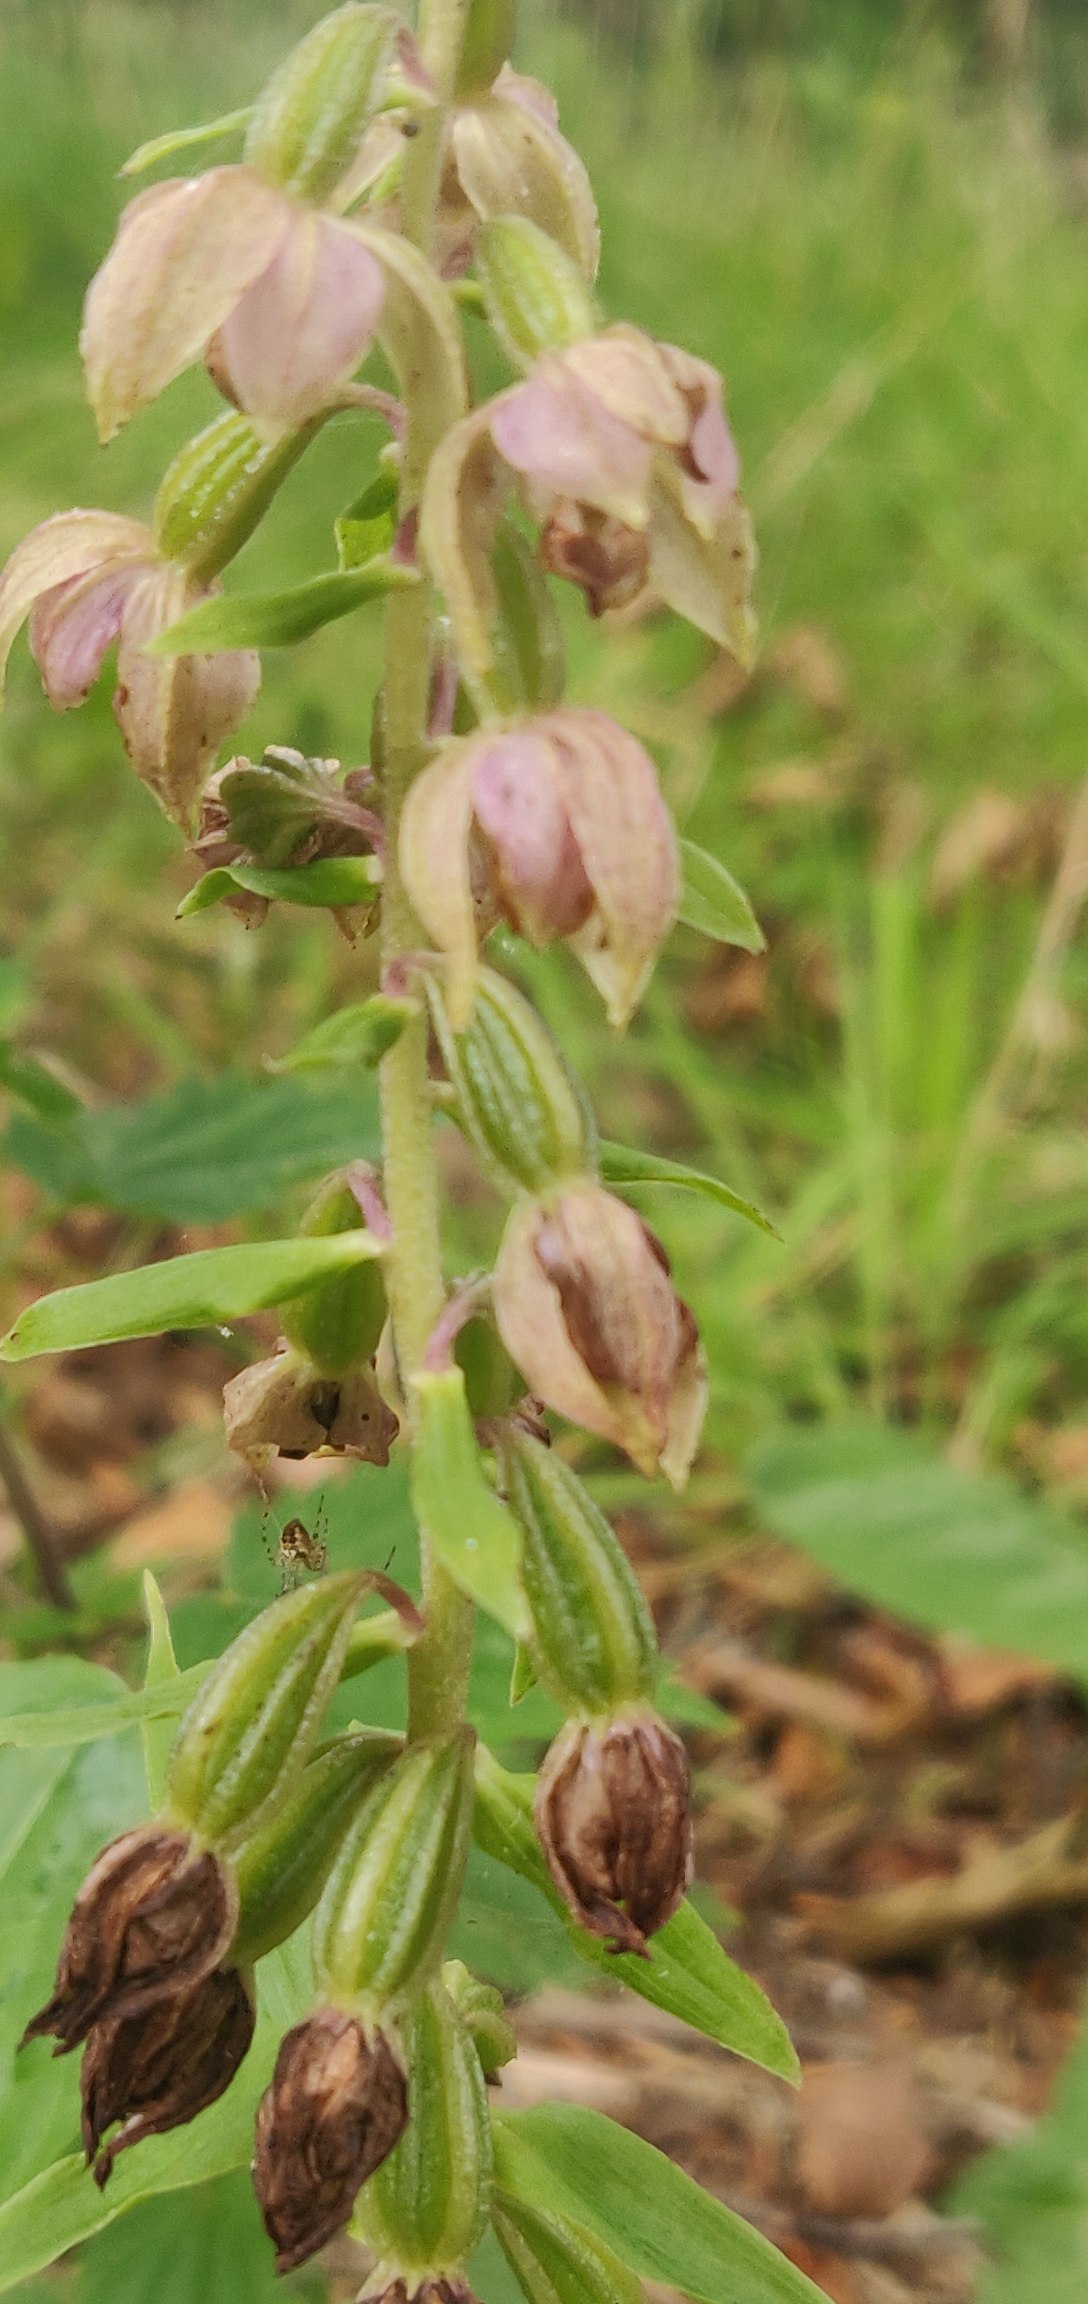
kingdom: Plantae
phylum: Tracheophyta
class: Liliopsida
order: Asparagales
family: Orchidaceae
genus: Epipactis
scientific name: Epipactis helleborine
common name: Skov-hullæbe
